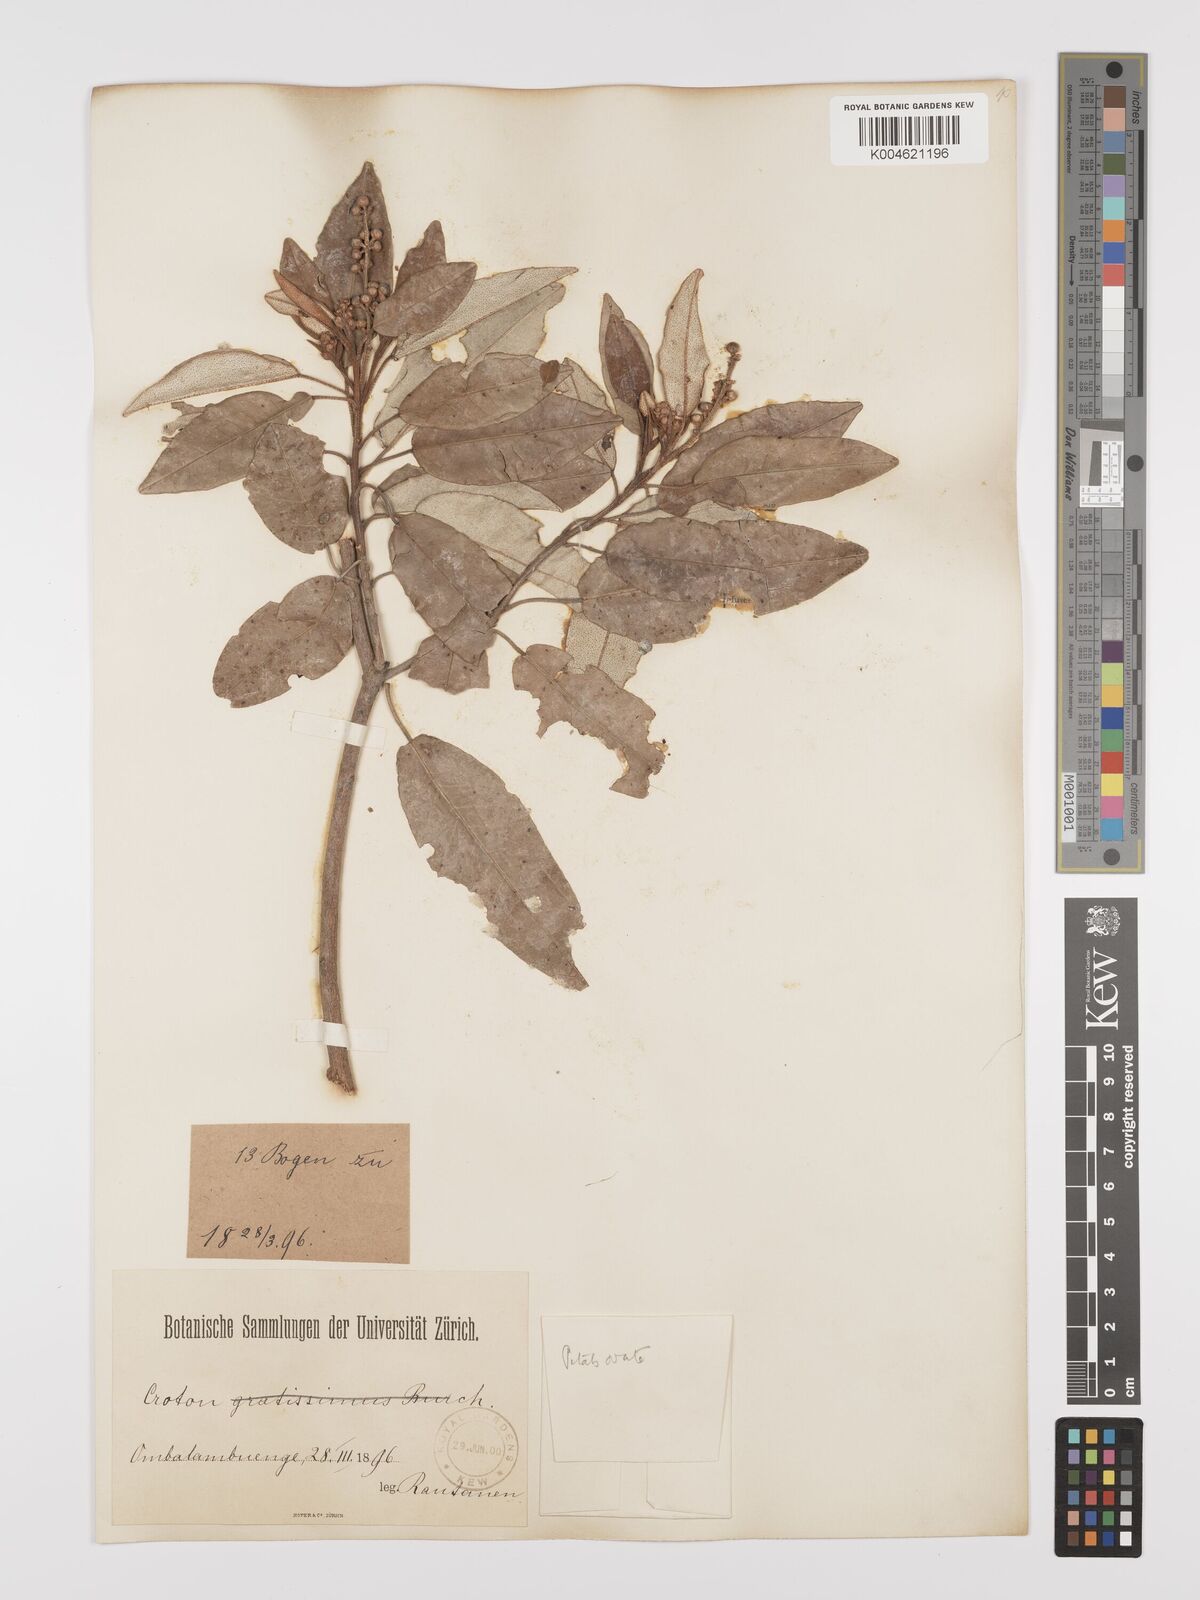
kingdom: Plantae
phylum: Tracheophyta
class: Magnoliopsida
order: Malpighiales
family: Euphorbiaceae
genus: Croton
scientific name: Croton gratissimus
